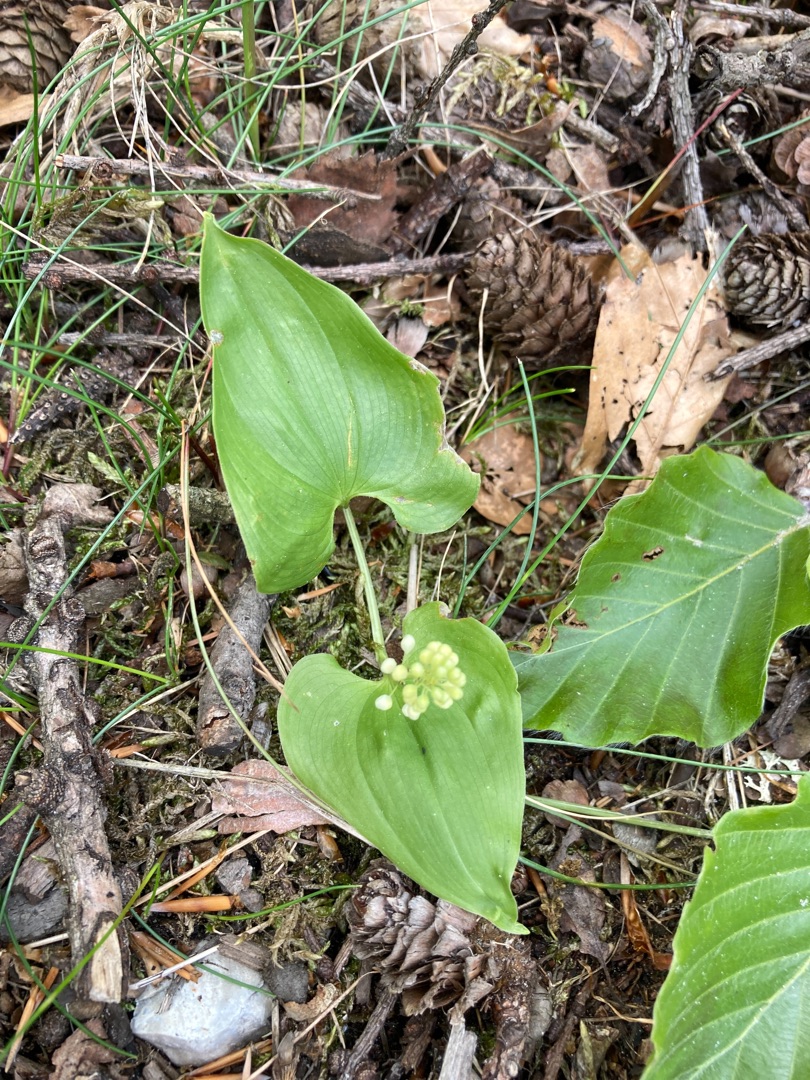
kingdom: Plantae
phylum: Tracheophyta
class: Liliopsida
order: Asparagales
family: Asparagaceae
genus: Maianthemum
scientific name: Maianthemum bifolium
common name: Majblomst
